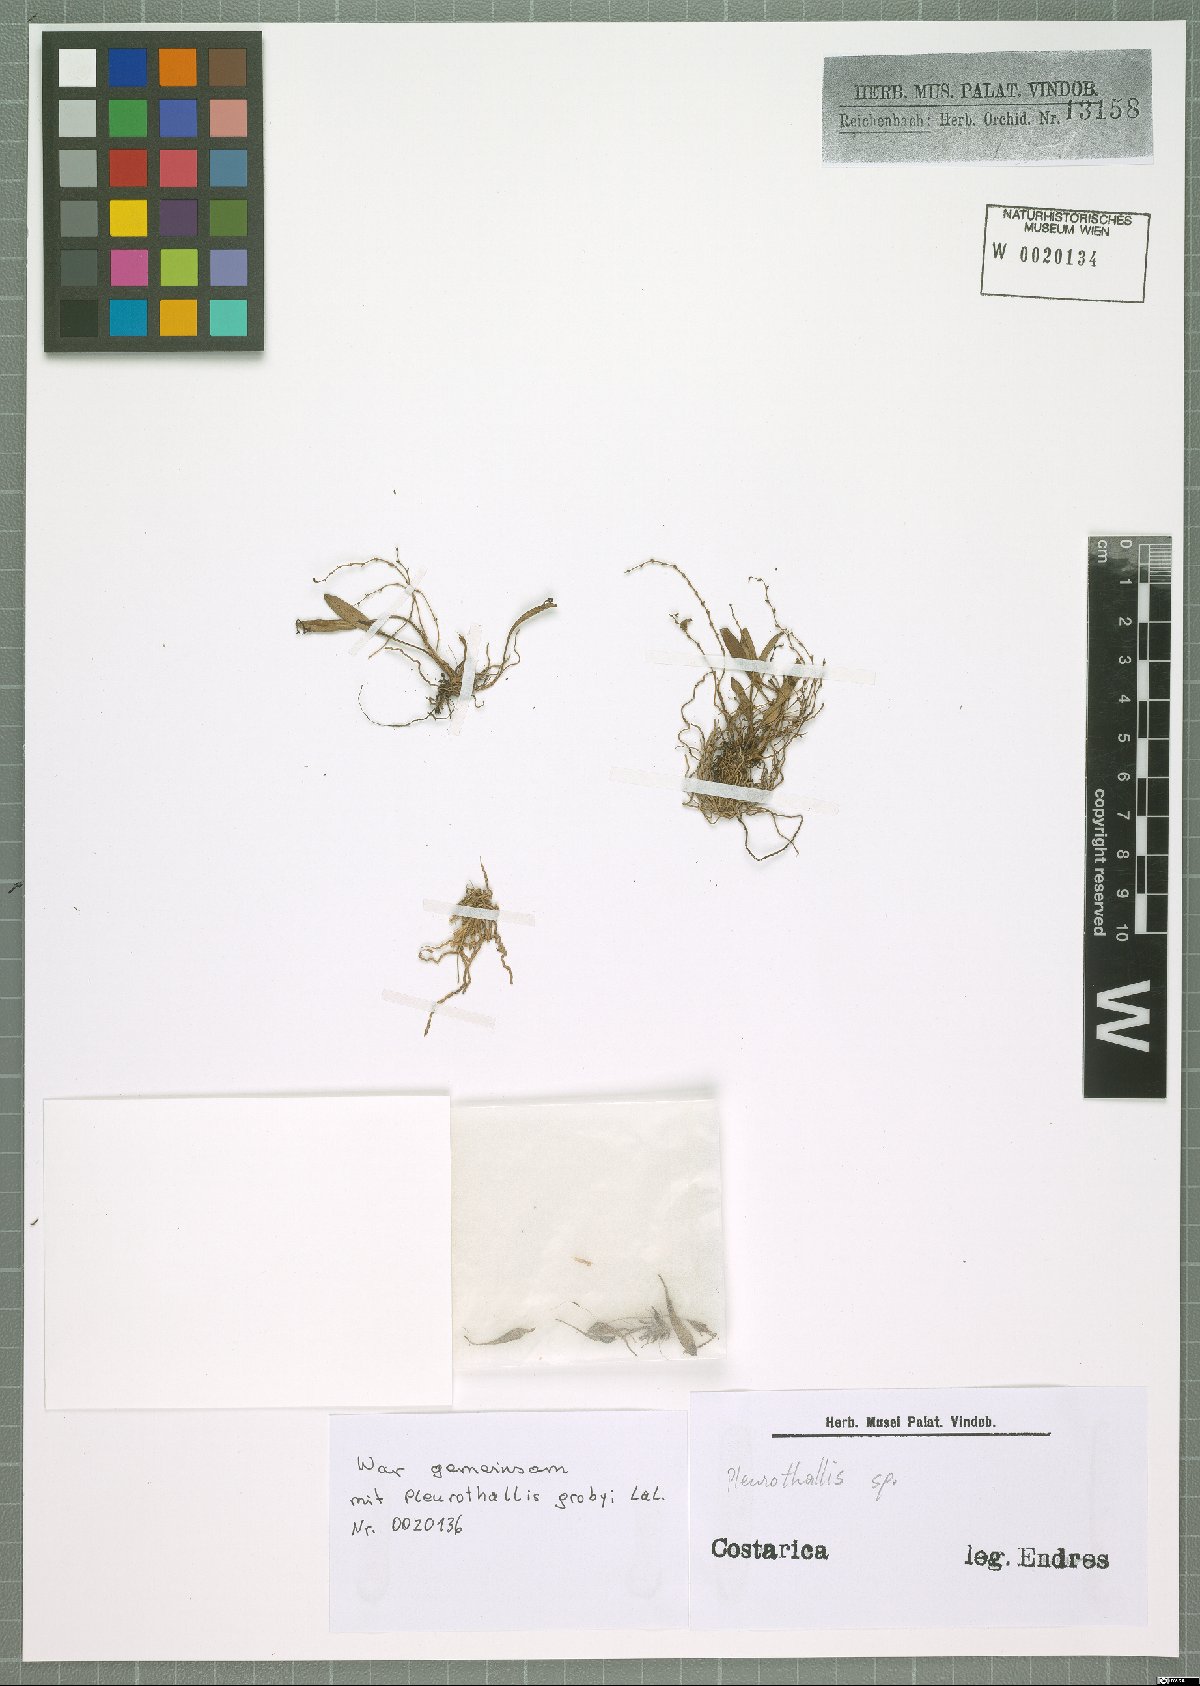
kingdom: Plantae
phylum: Tracheophyta
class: Liliopsida
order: Asparagales
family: Orchidaceae
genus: Pleurothallis
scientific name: Pleurothallis
